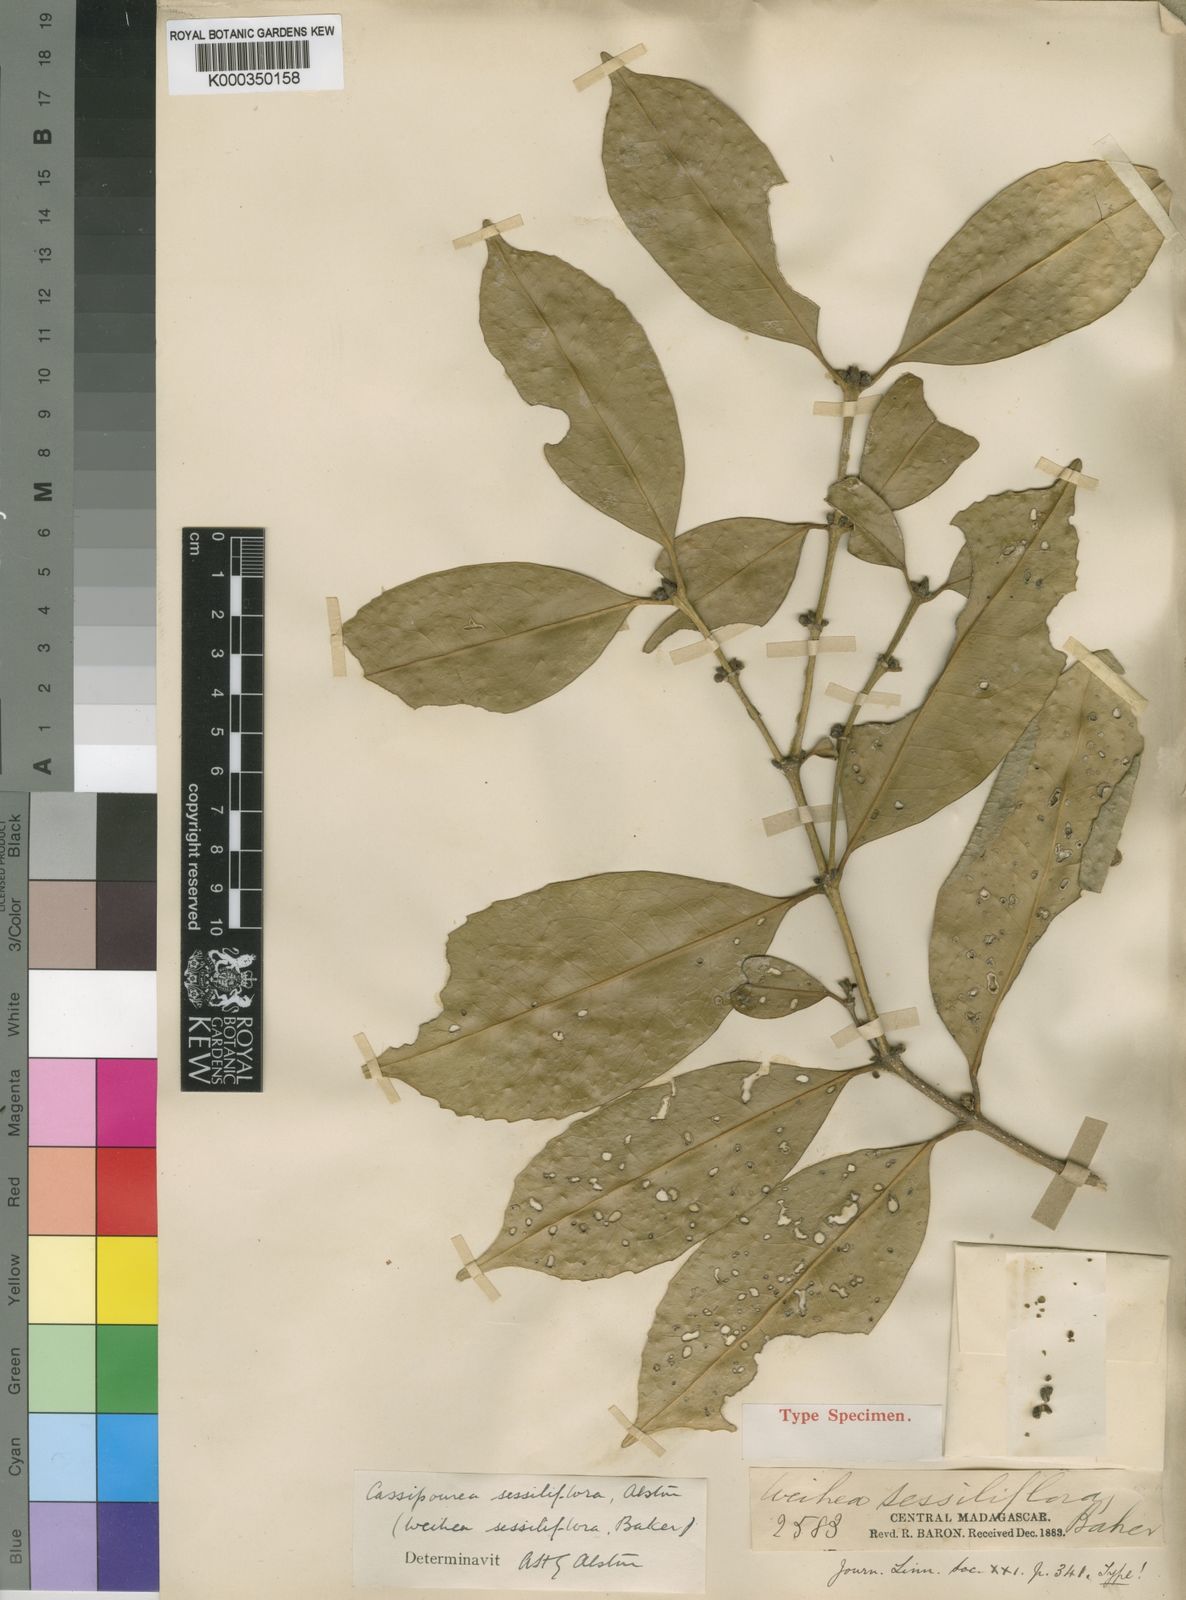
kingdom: Plantae
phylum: Tracheophyta
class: Magnoliopsida
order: Malpighiales
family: Rhizophoraceae
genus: Cassipourea
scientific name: Cassipourea sessiliflora
